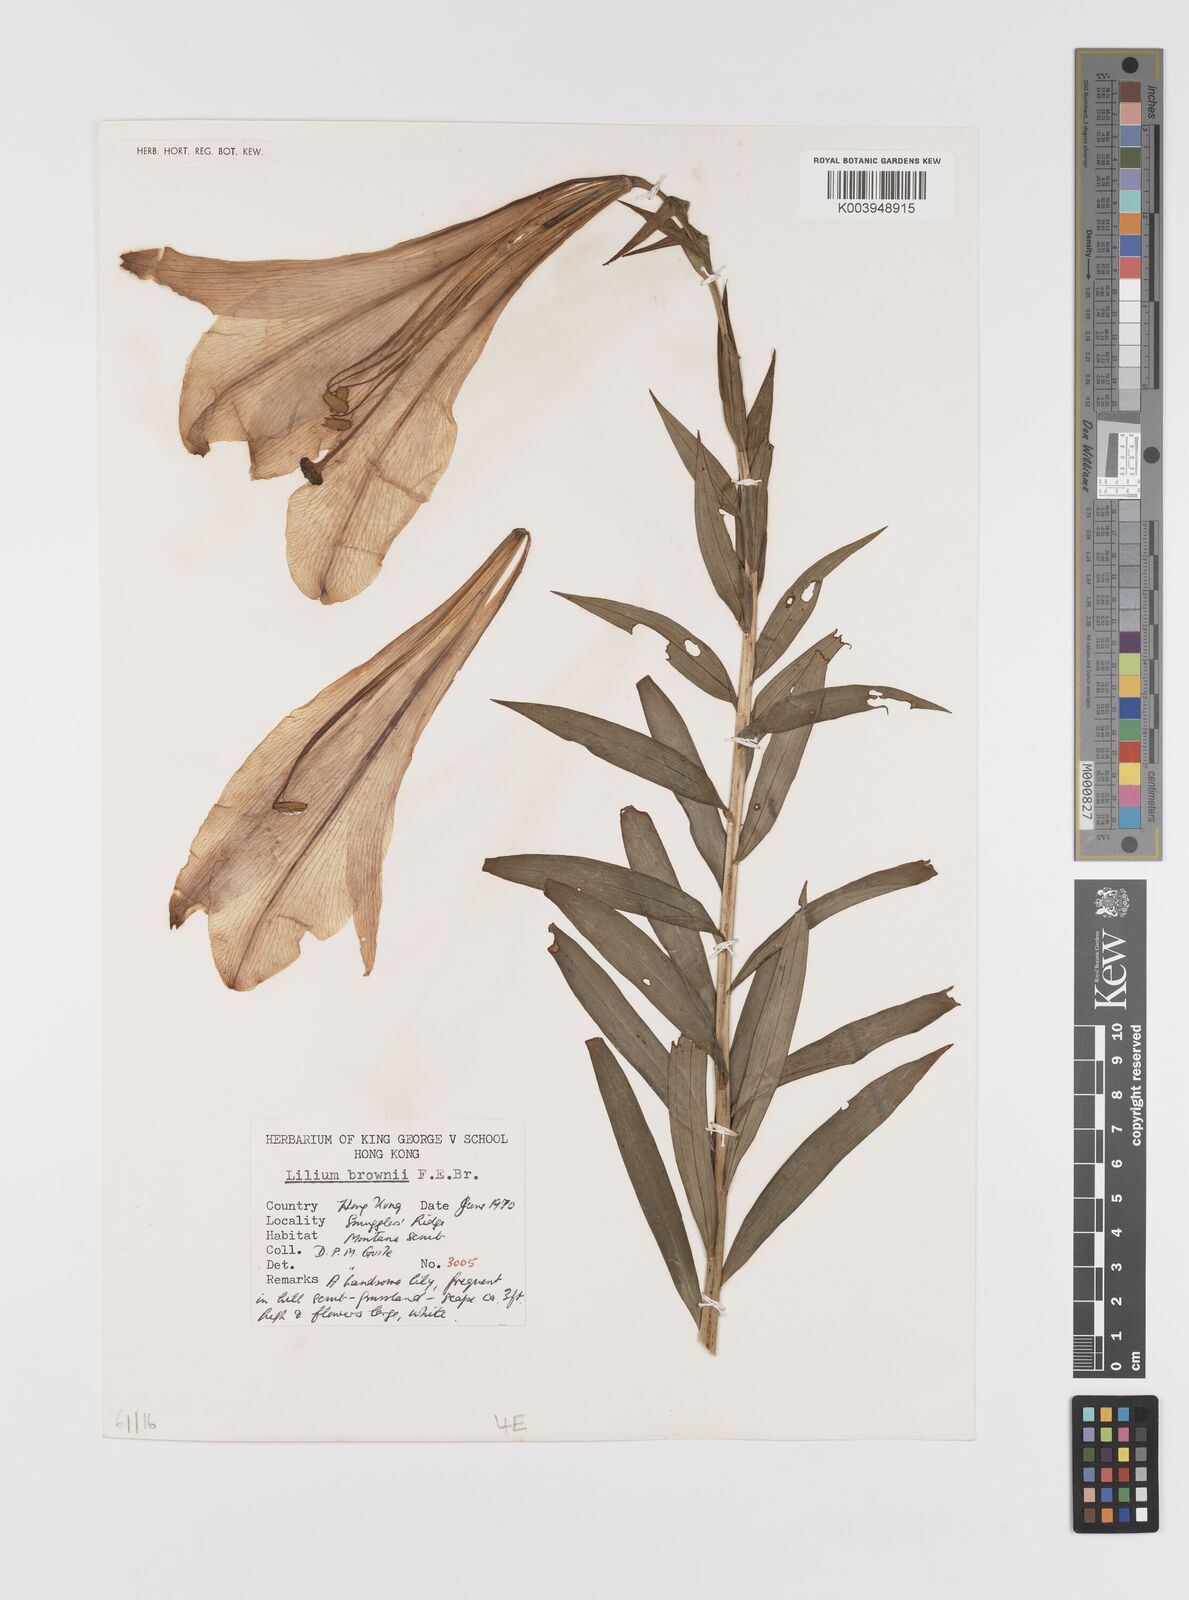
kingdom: Plantae
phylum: Tracheophyta
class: Liliopsida
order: Liliales
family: Liliaceae
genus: Lilium
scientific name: Lilium japonicum
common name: Japanese lily
